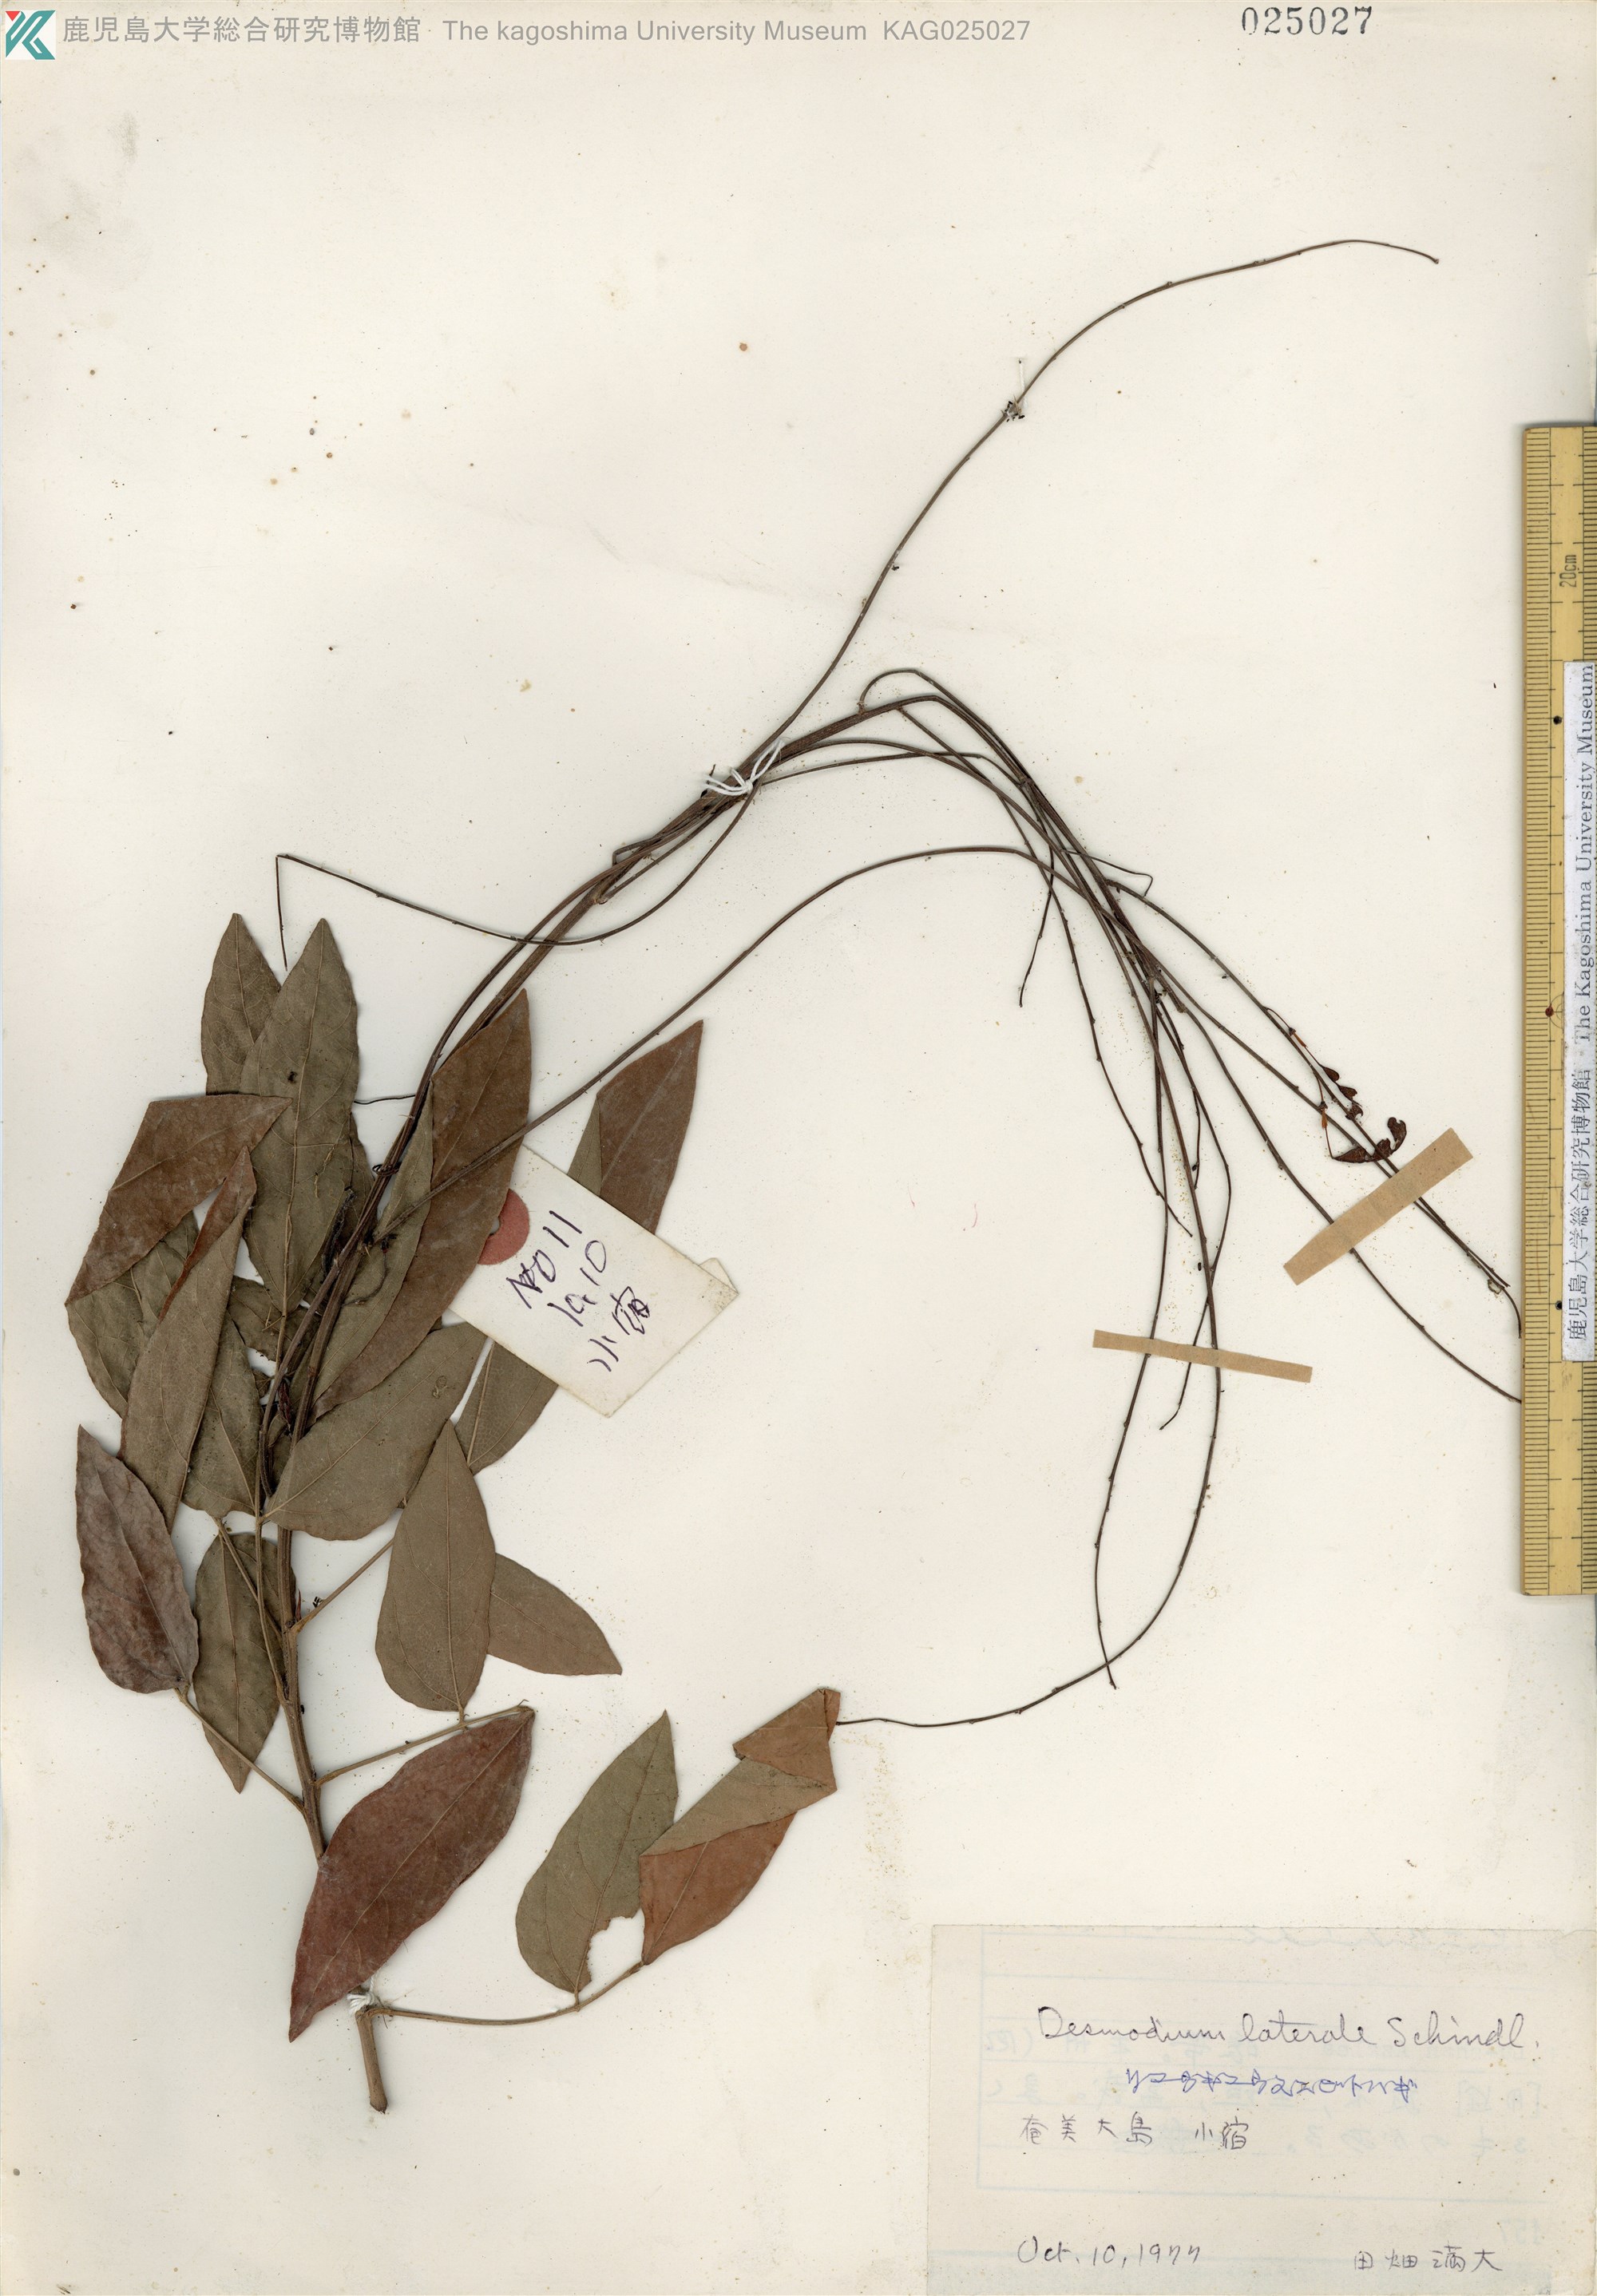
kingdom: Plantae
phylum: Tracheophyta
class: Magnoliopsida
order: Fabales
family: Fabaceae
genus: Hylodesmum
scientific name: Hylodesmum laterale
